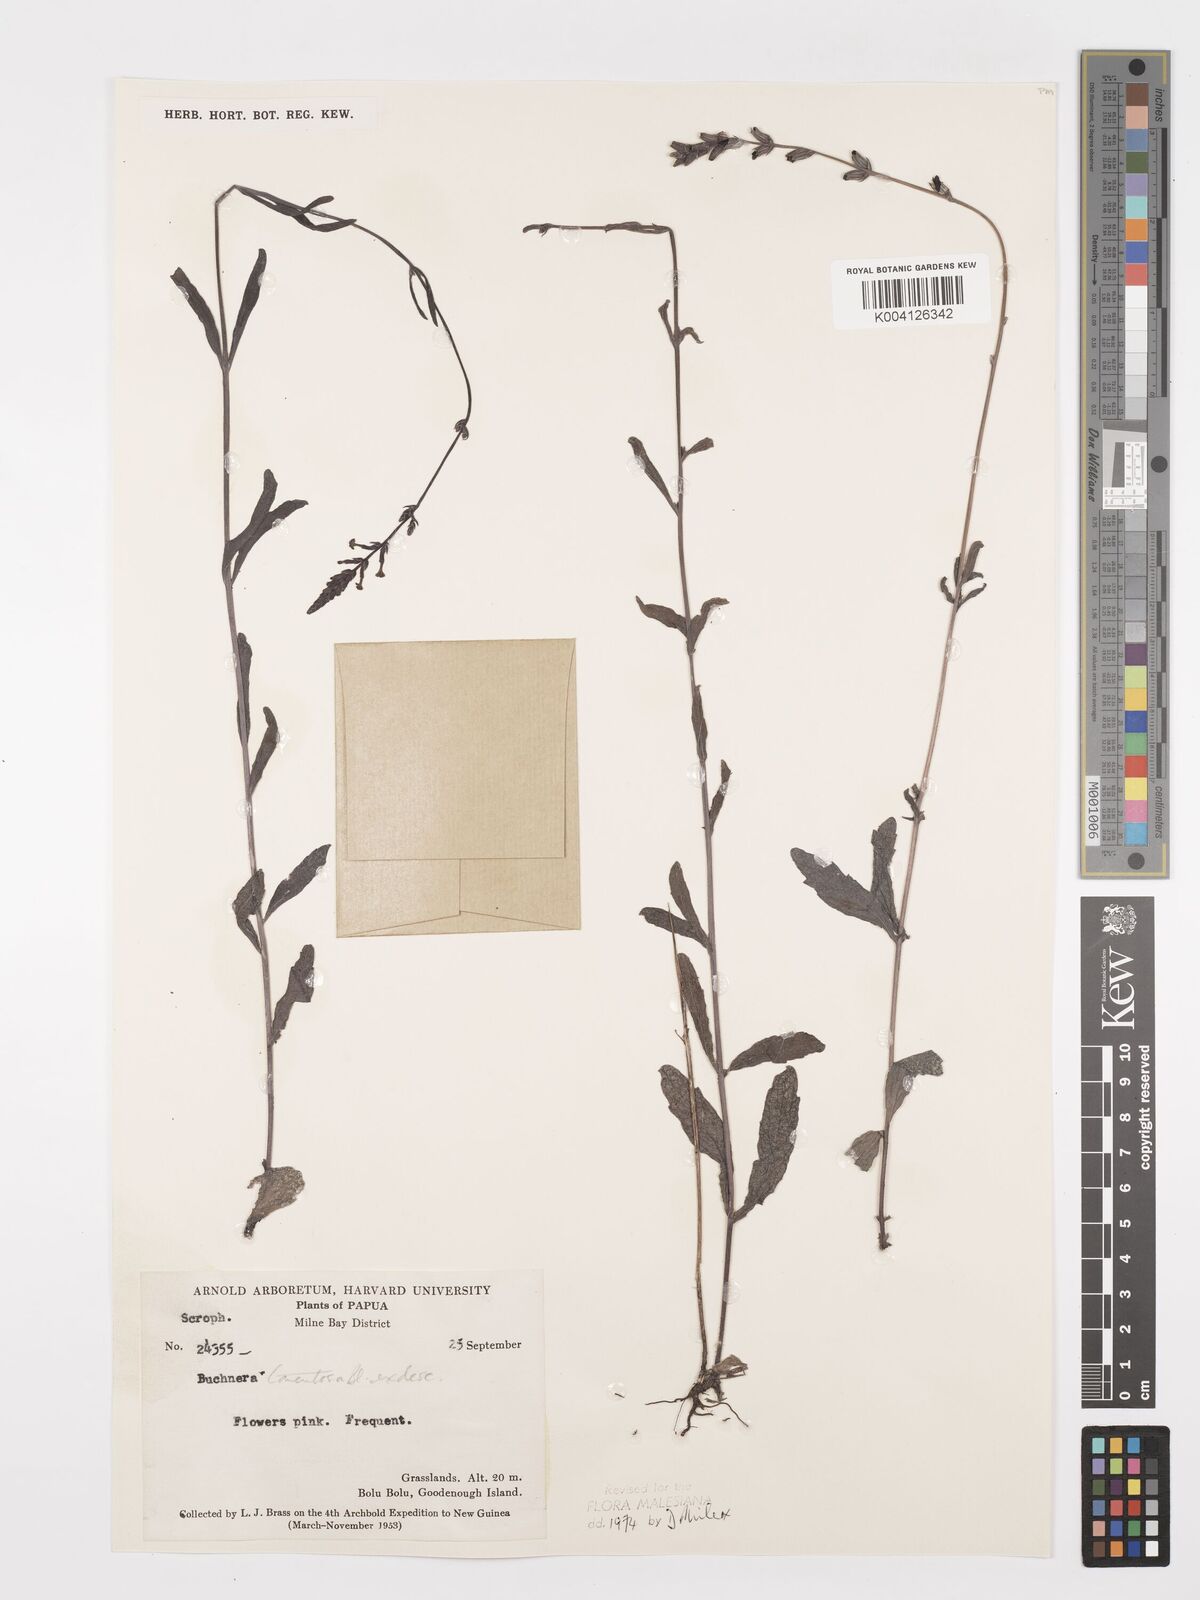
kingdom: Plantae
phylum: Tracheophyta
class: Magnoliopsida
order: Lamiales
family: Orobanchaceae
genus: Buchnera
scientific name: Buchnera tomentosa
